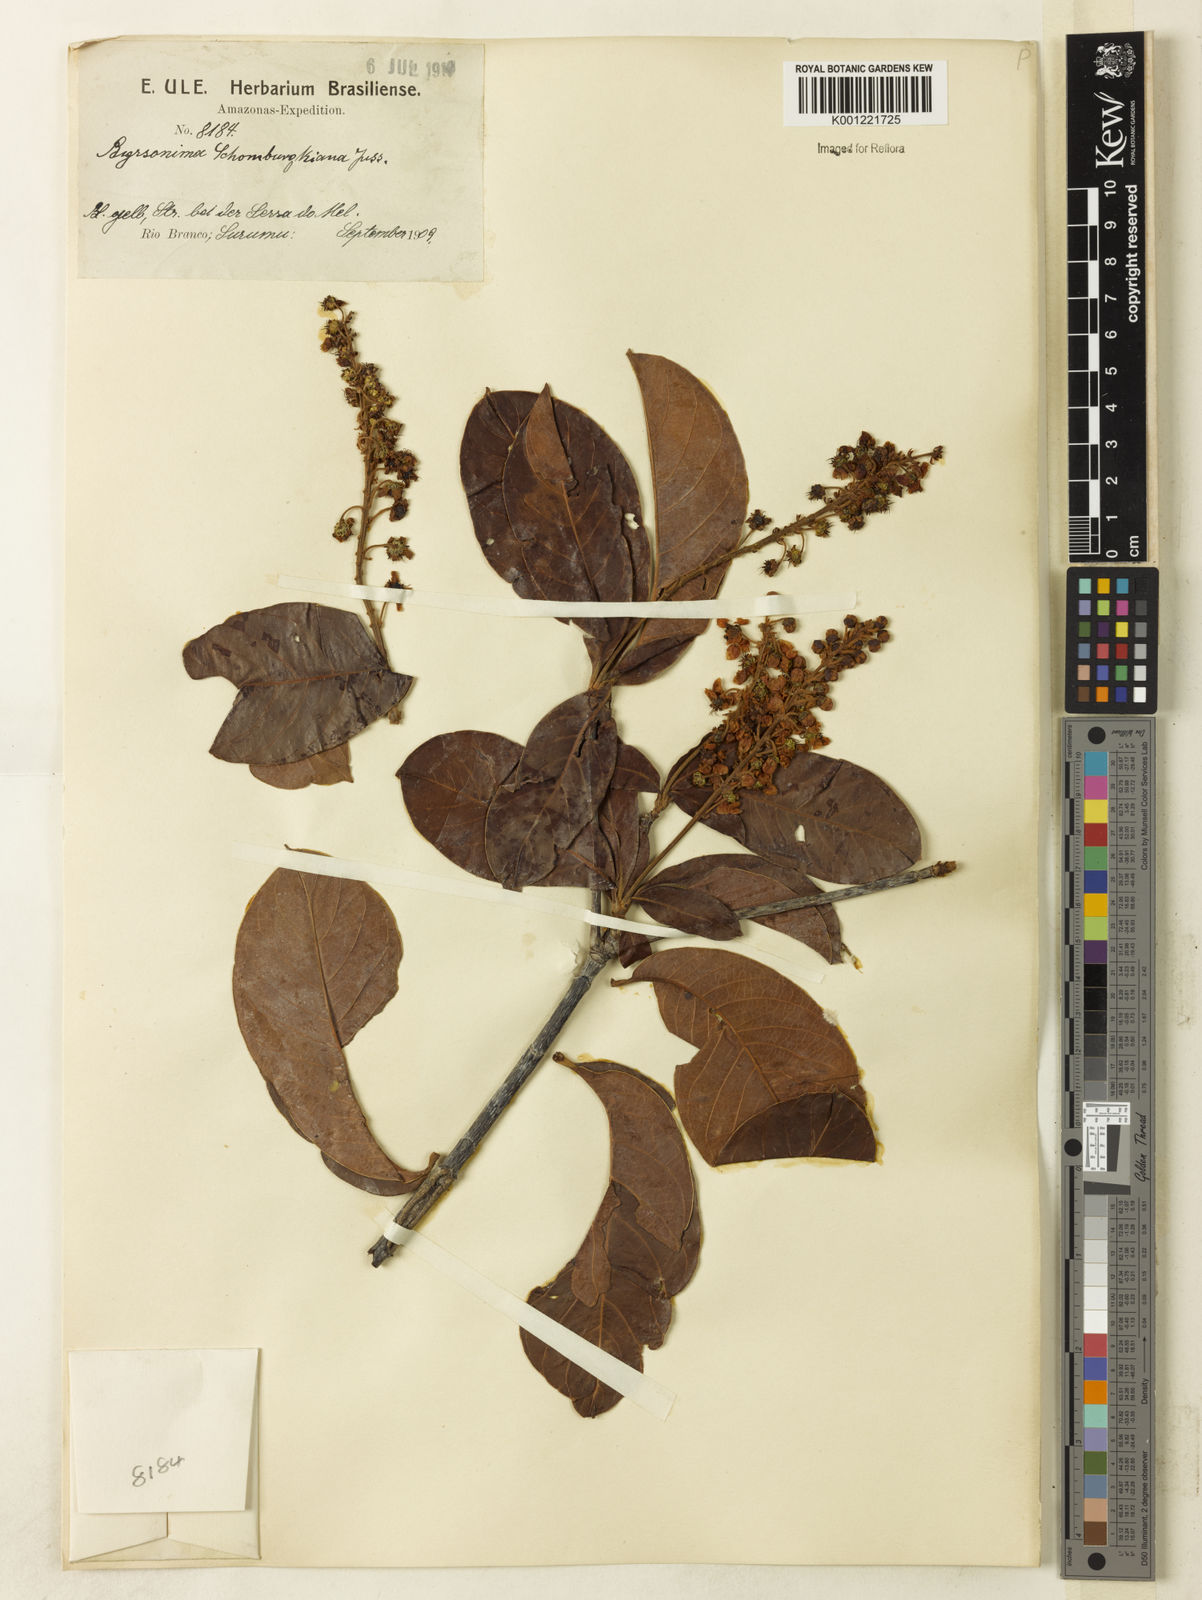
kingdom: Plantae
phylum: Tracheophyta
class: Magnoliopsida
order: Malpighiales
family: Malpighiaceae
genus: Byrsonima
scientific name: Byrsonima schomburgkiana
